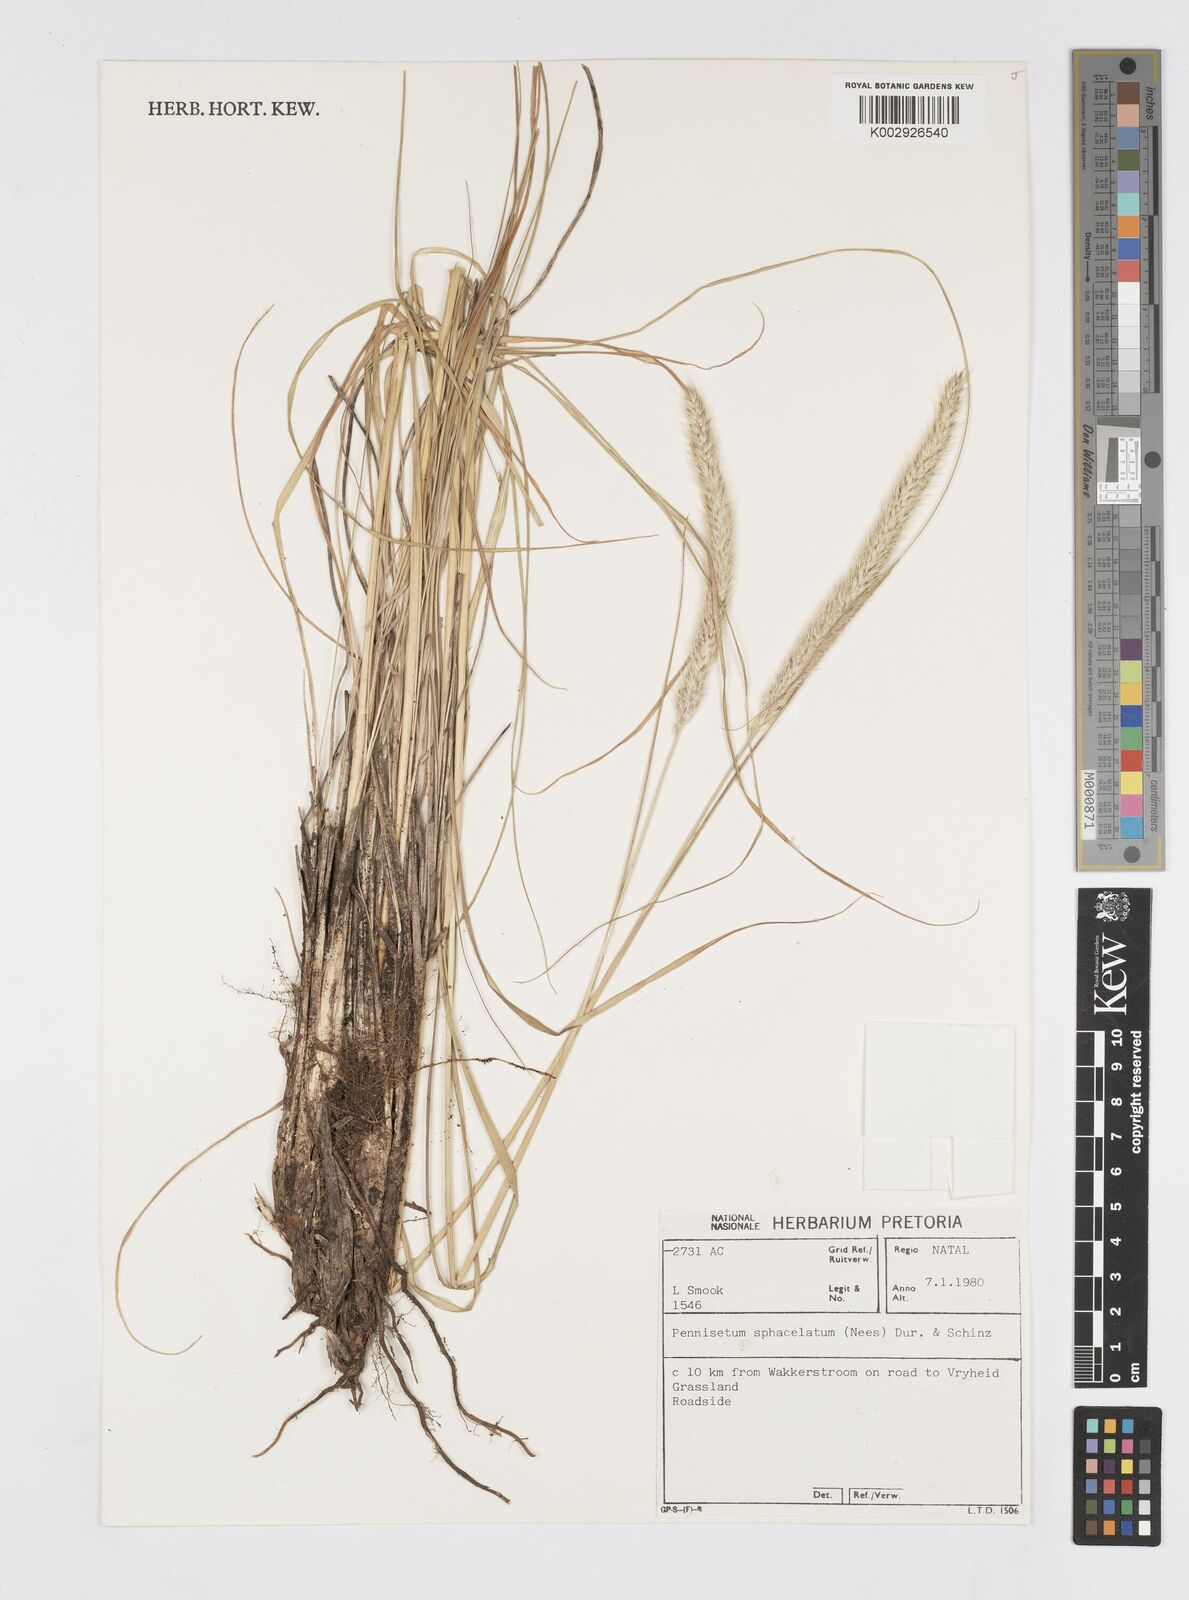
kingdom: Plantae
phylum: Tracheophyta
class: Liliopsida
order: Poales
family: Poaceae
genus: Cenchrus
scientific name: Cenchrus sphacelatus
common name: Bulgras
